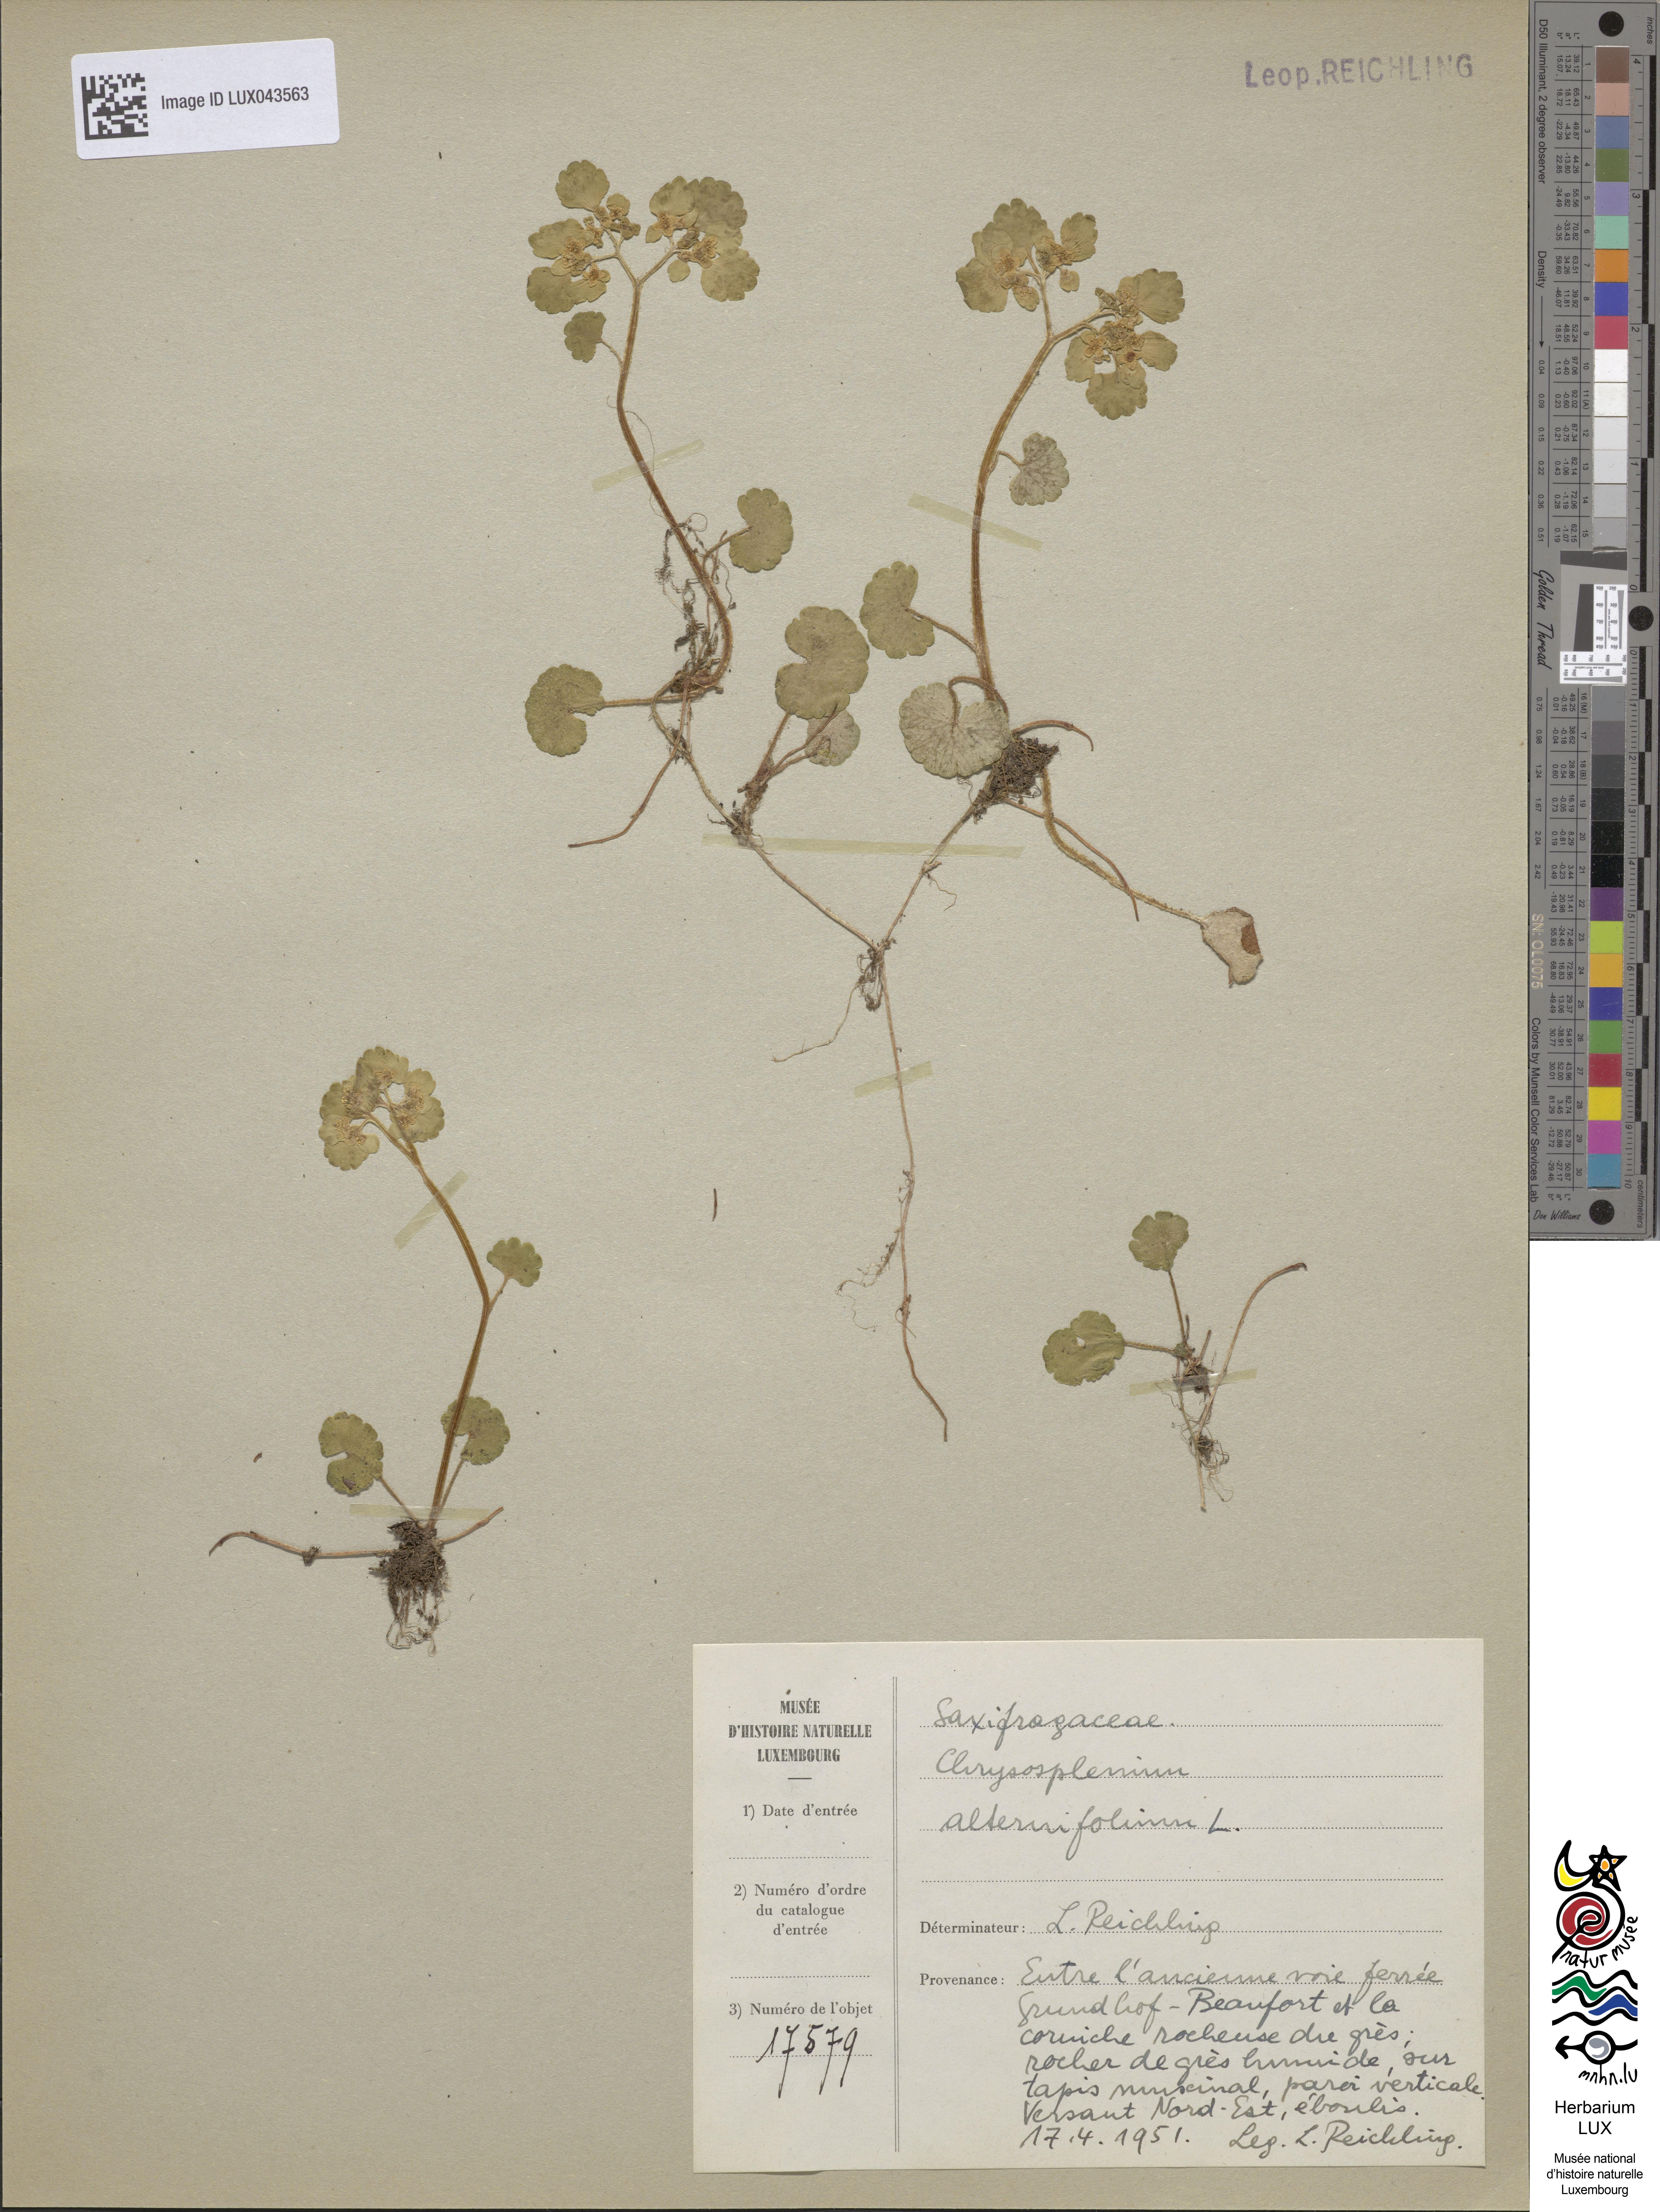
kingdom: Plantae
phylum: Tracheophyta
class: Magnoliopsida
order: Saxifragales
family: Saxifragaceae
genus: Chrysosplenium
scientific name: Chrysosplenium alternifolium
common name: Alternate-leaved golden-saxifrage
